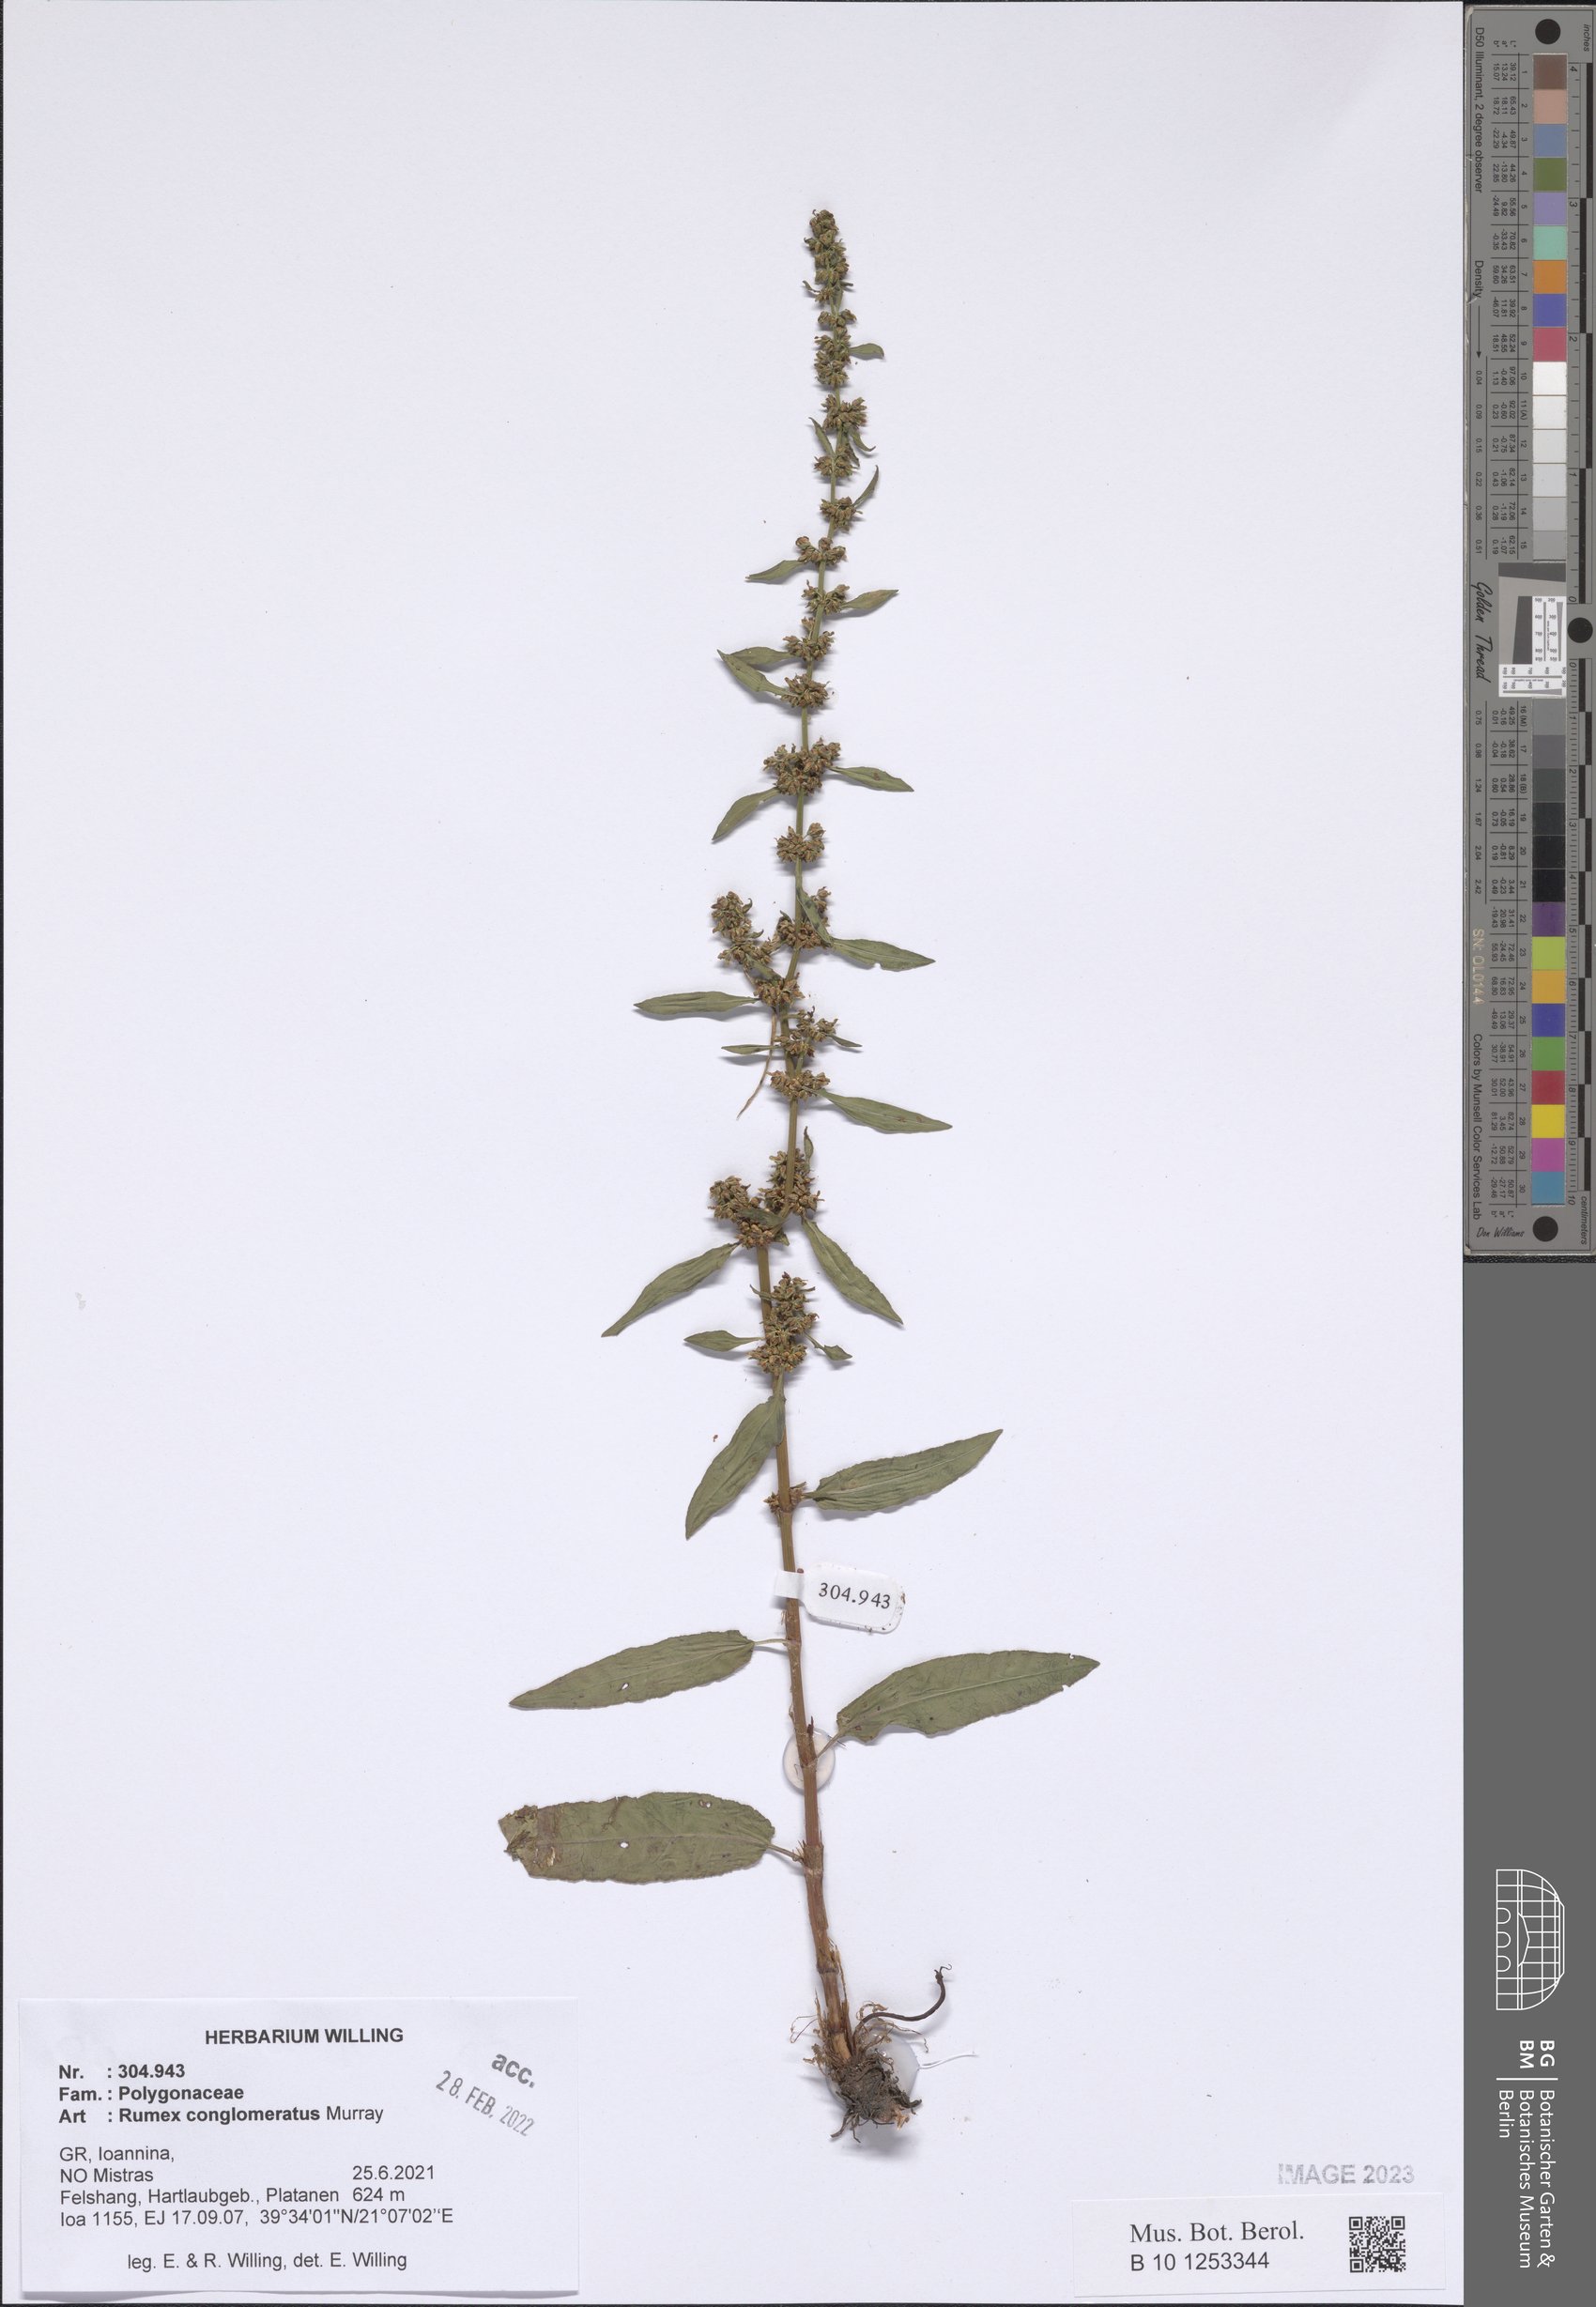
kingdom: Plantae
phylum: Tracheophyta
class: Magnoliopsida
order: Caryophyllales
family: Polygonaceae
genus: Rumex
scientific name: Rumex conglomeratus
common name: Clustered dock
